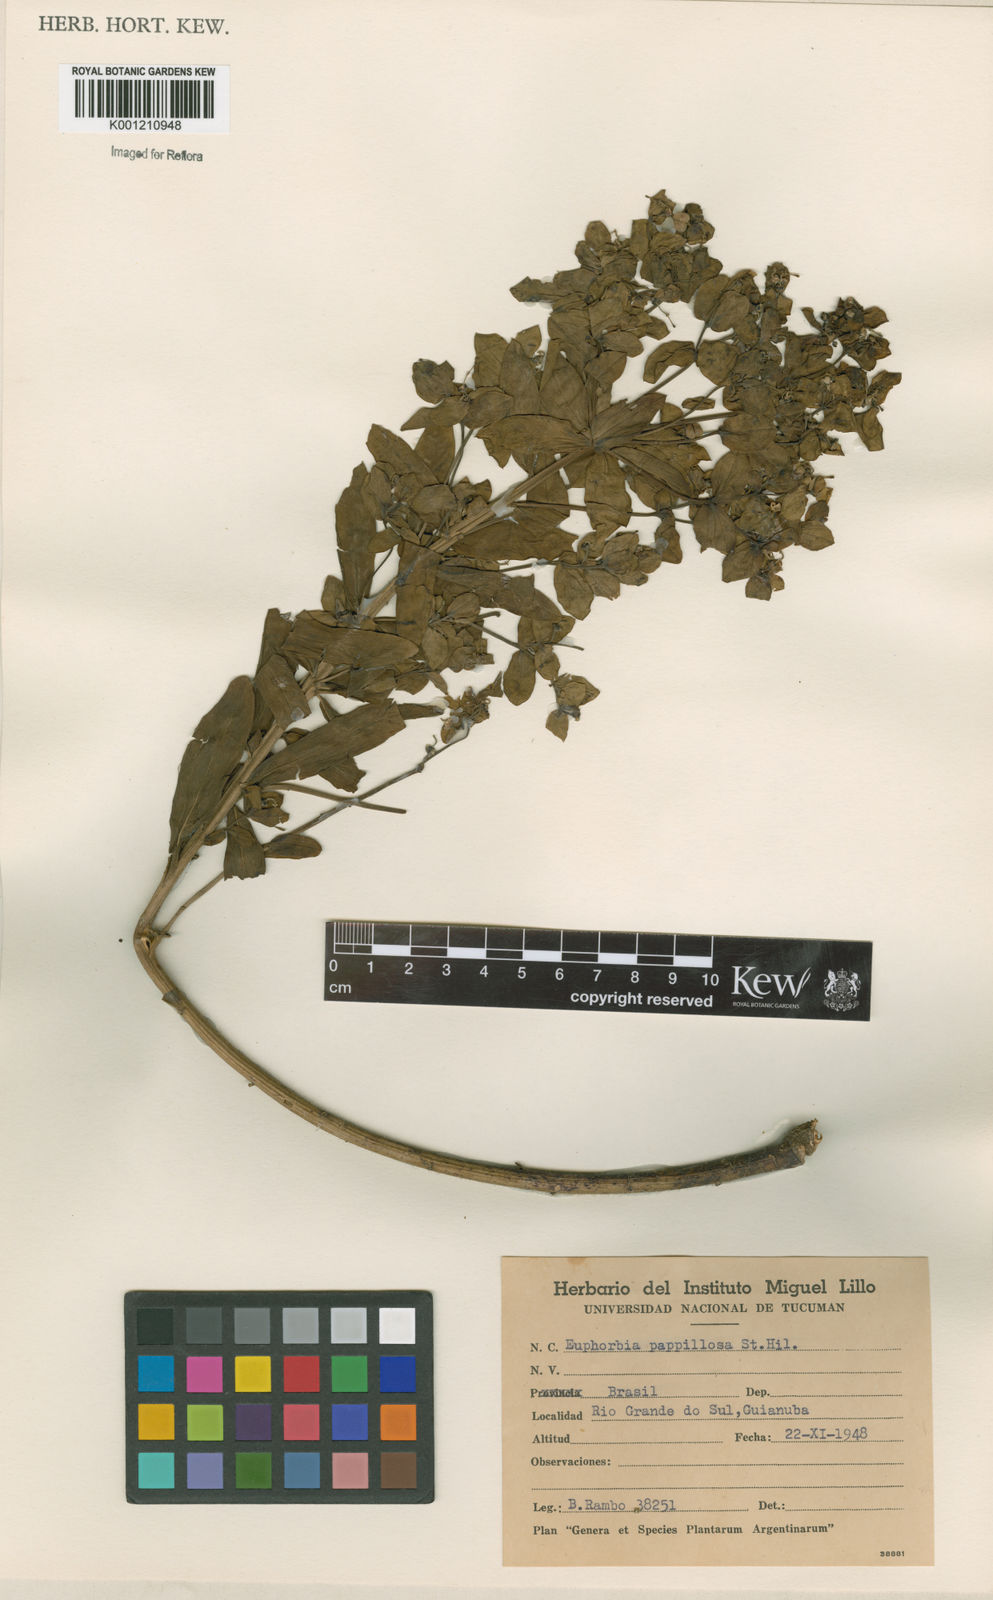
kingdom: Plantae
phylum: Tracheophyta
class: Magnoliopsida
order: Malpighiales
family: Euphorbiaceae
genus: Euphorbia
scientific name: Euphorbia papillosa
